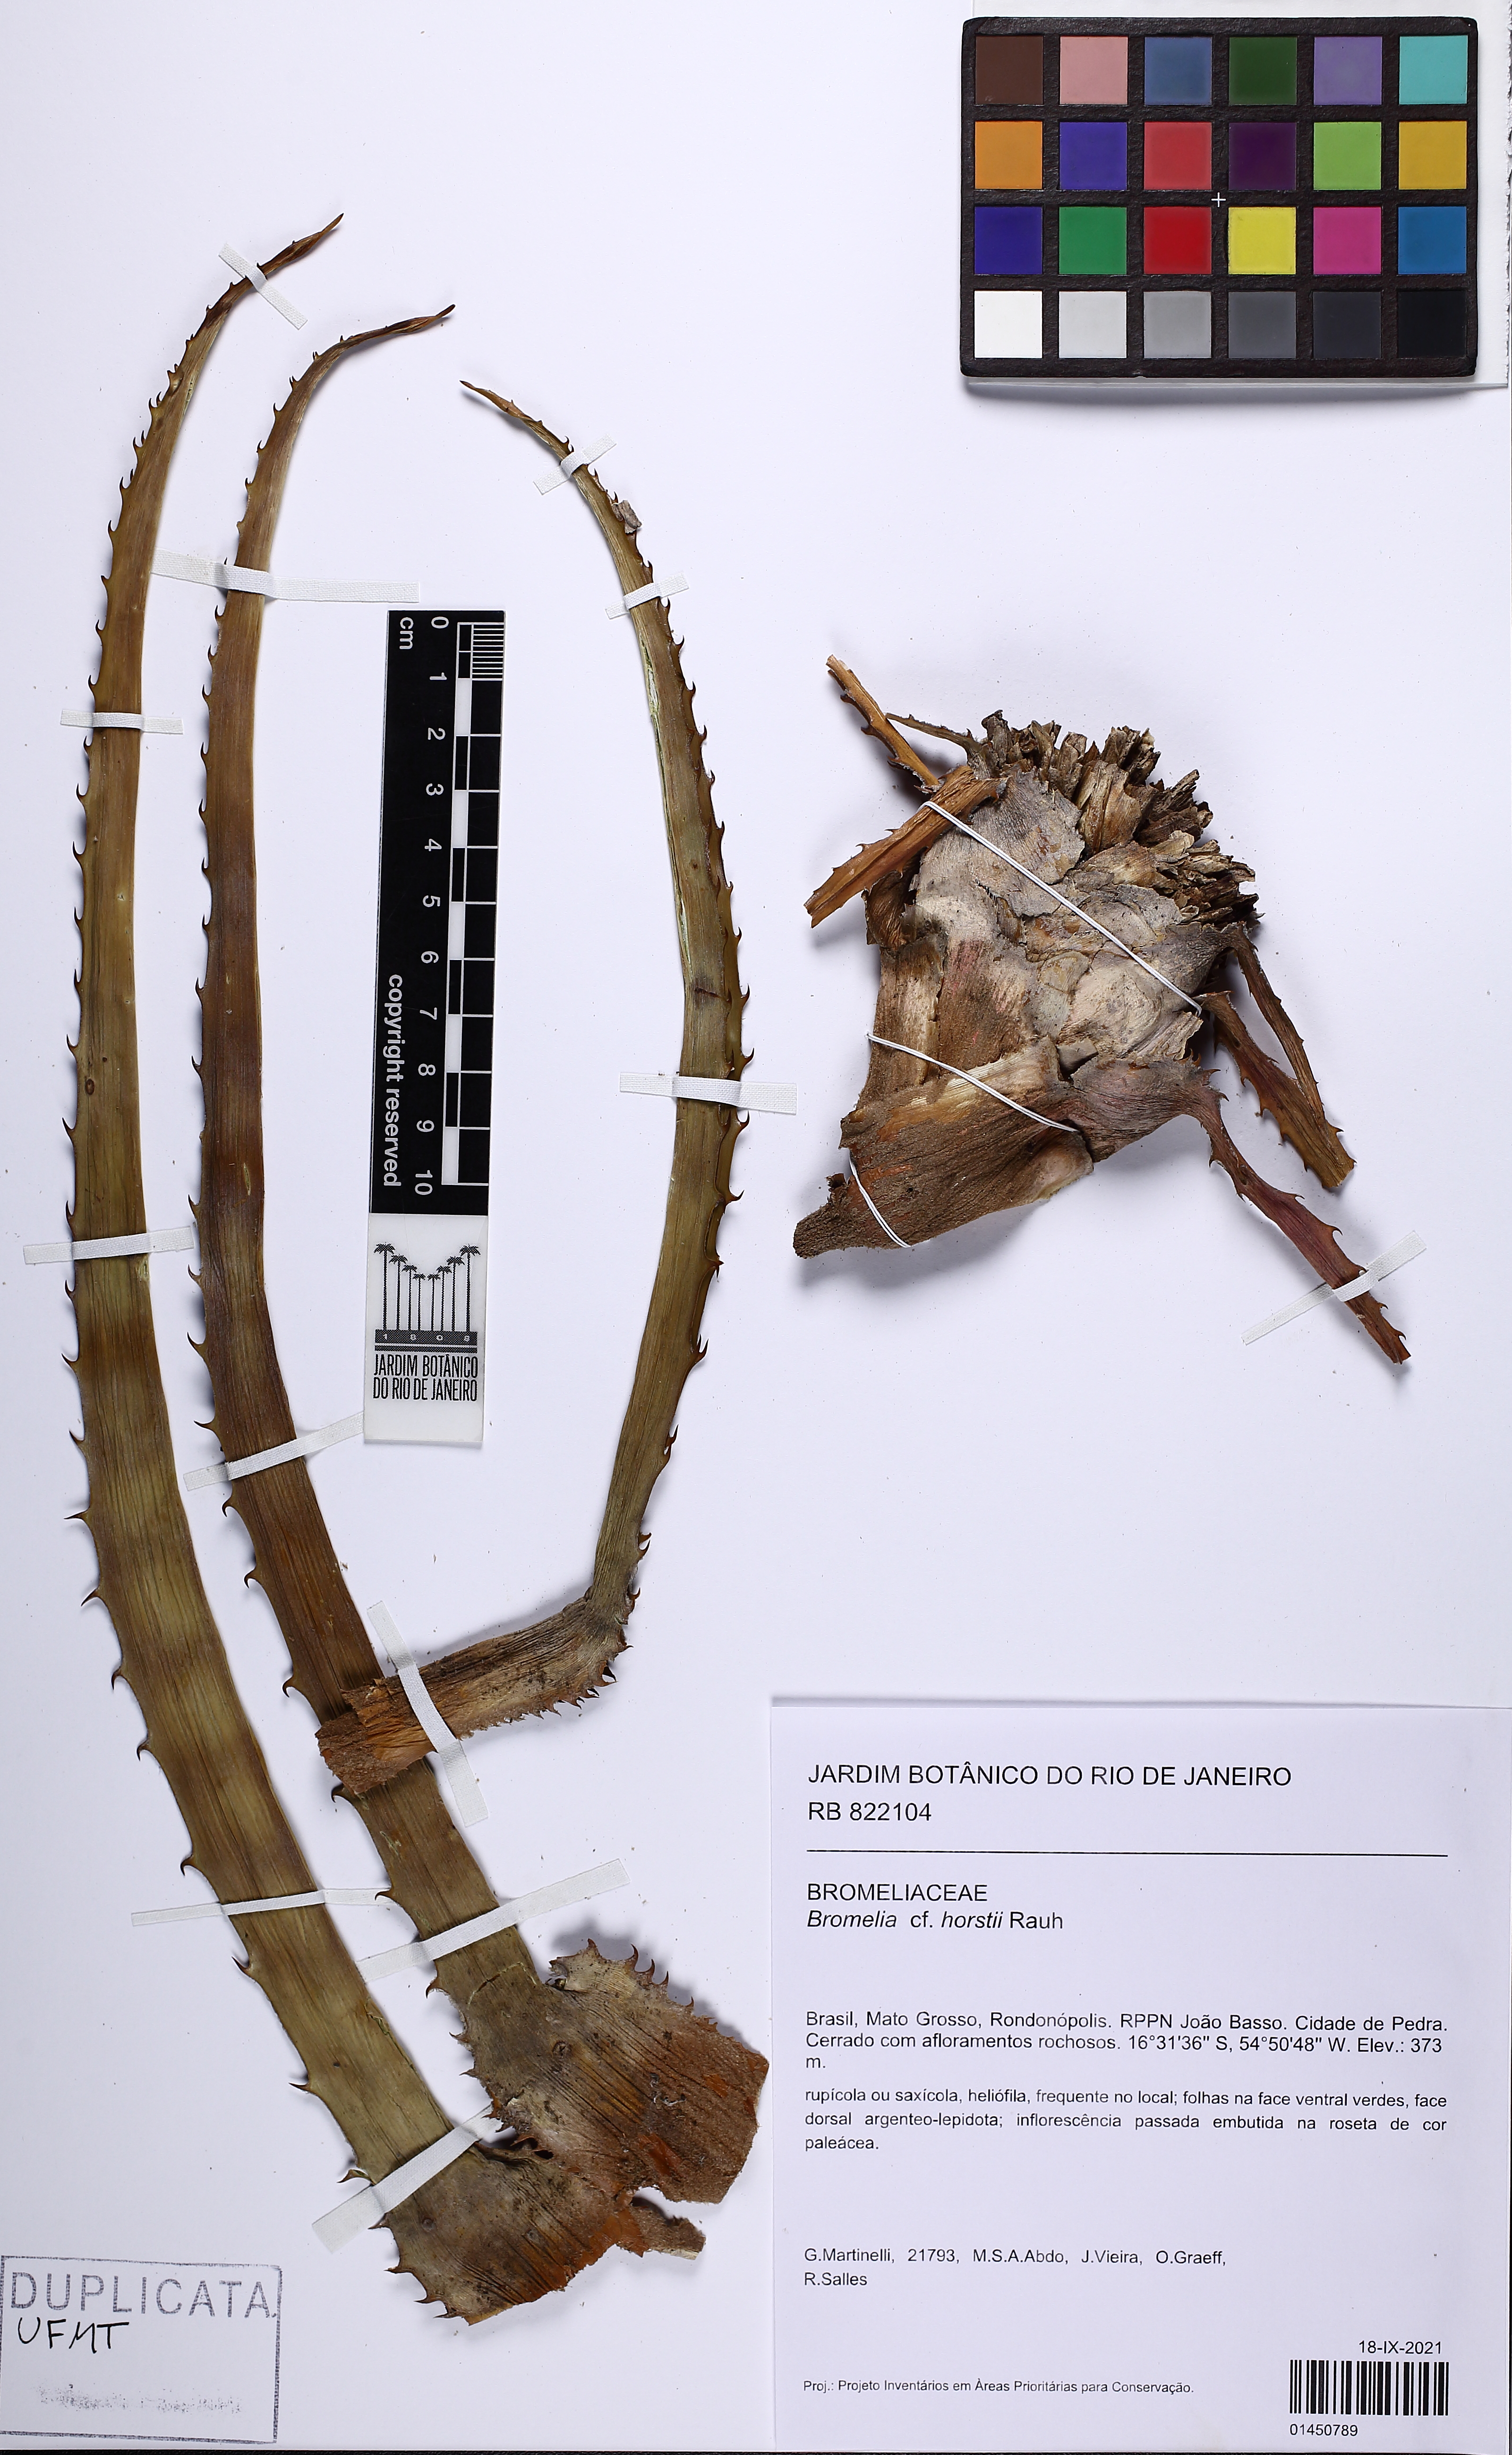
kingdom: Plantae
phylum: Tracheophyta
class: Liliopsida
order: Poales
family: Bromeliaceae
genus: Bromelia
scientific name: Bromelia horstii
